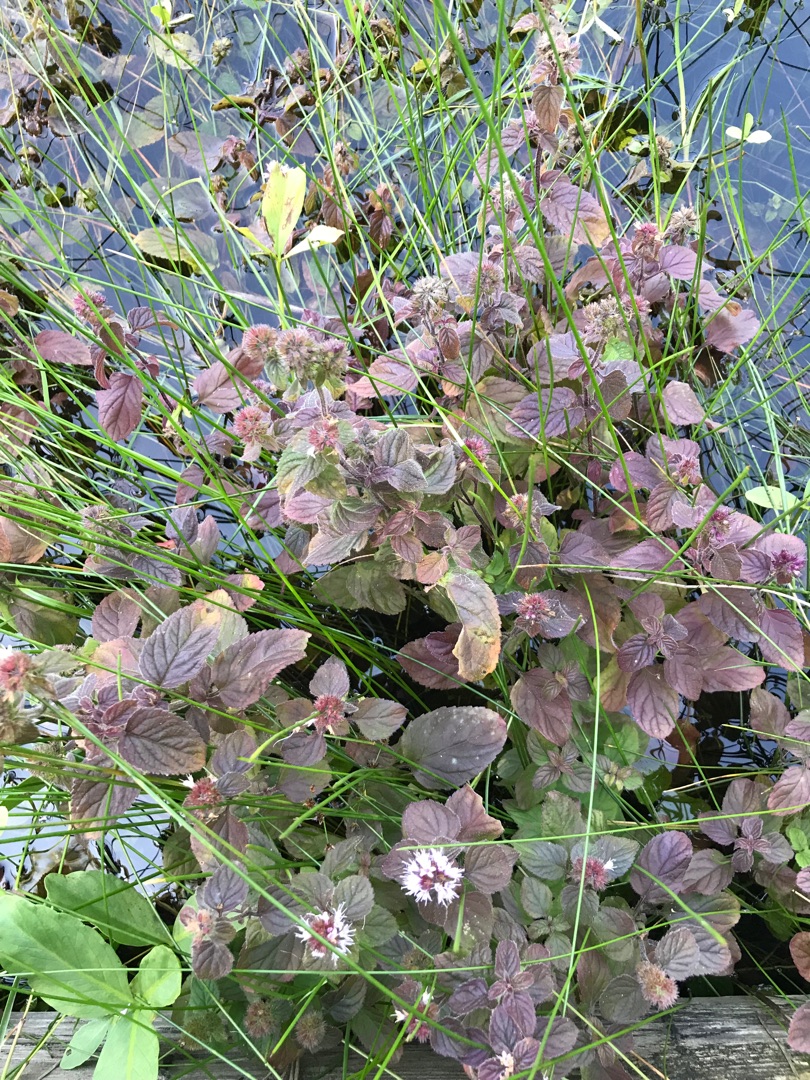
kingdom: Plantae
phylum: Tracheophyta
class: Magnoliopsida
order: Lamiales
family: Lamiaceae
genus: Mentha
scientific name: Mentha aquatica
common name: Vand-mynte
